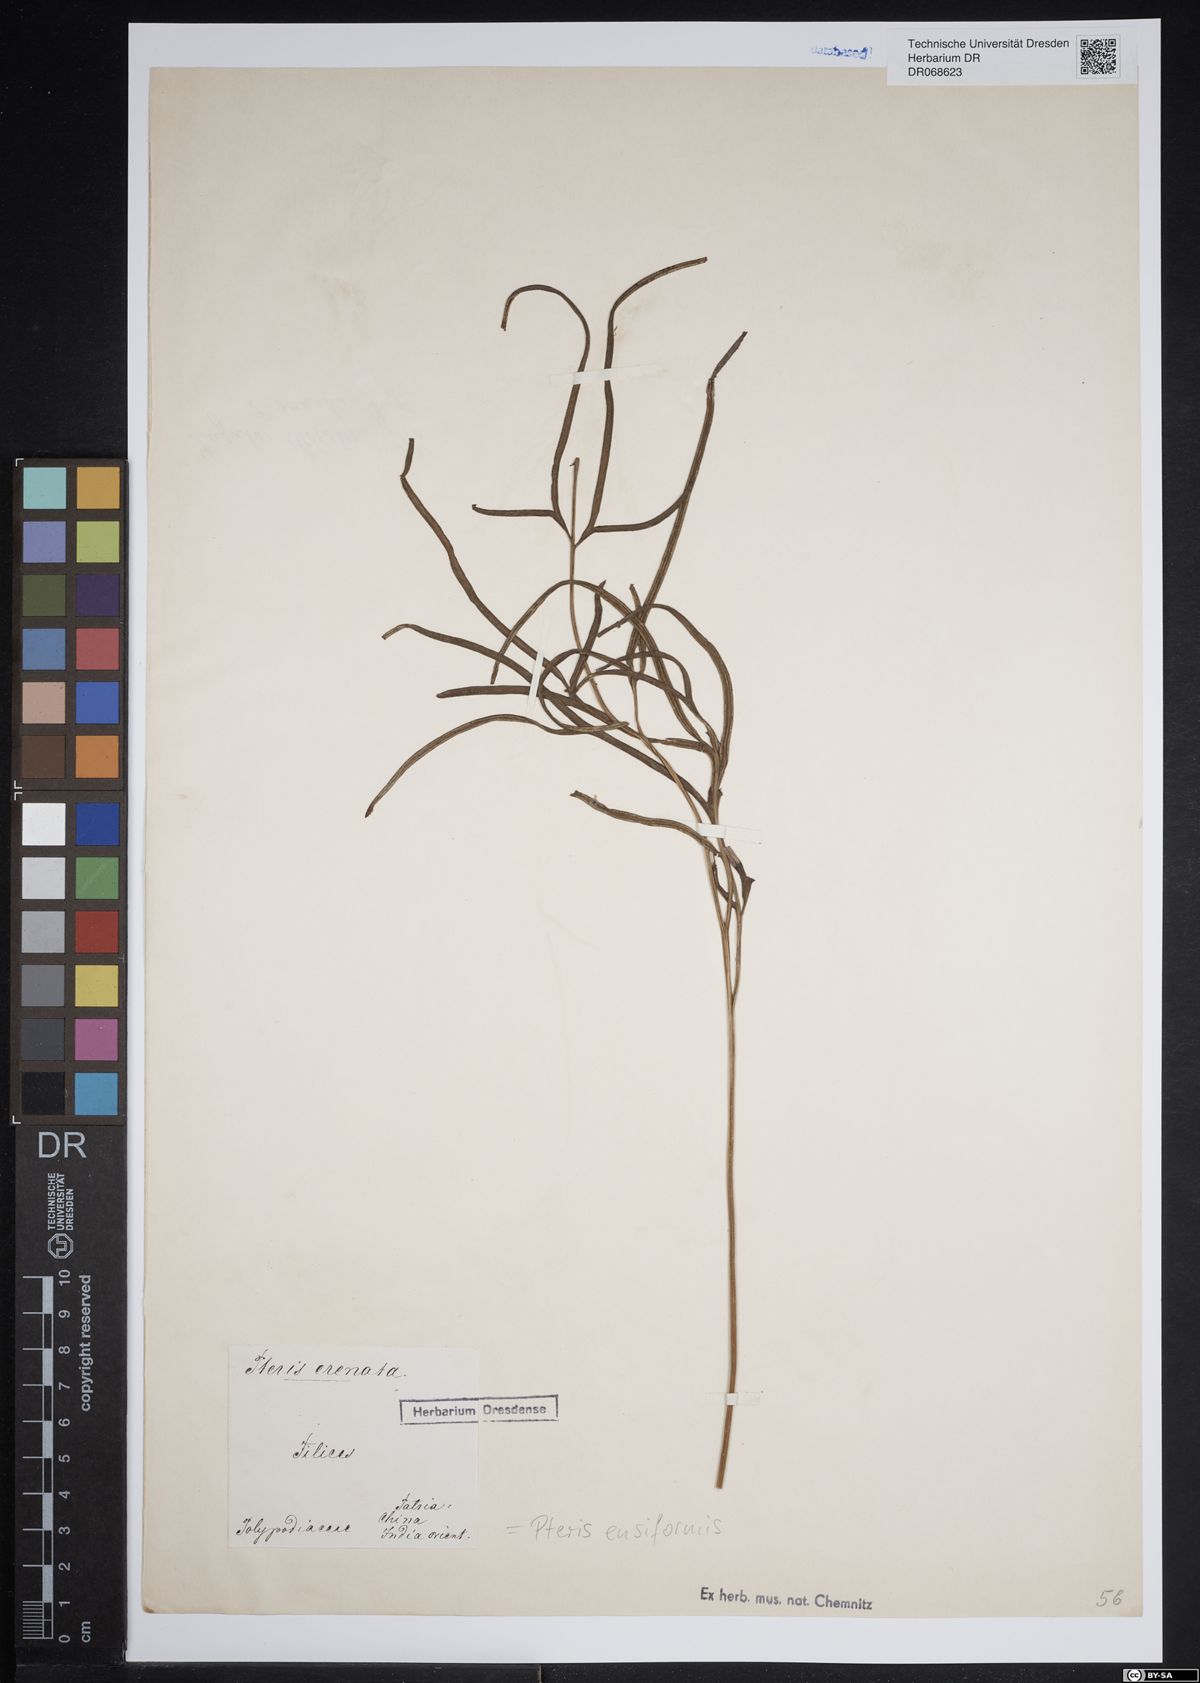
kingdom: Plantae
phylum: Tracheophyta
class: Polypodiopsida
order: Polypodiales
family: Pteridaceae
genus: Pteris
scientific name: Pteris ensiformis
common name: Sword brake
